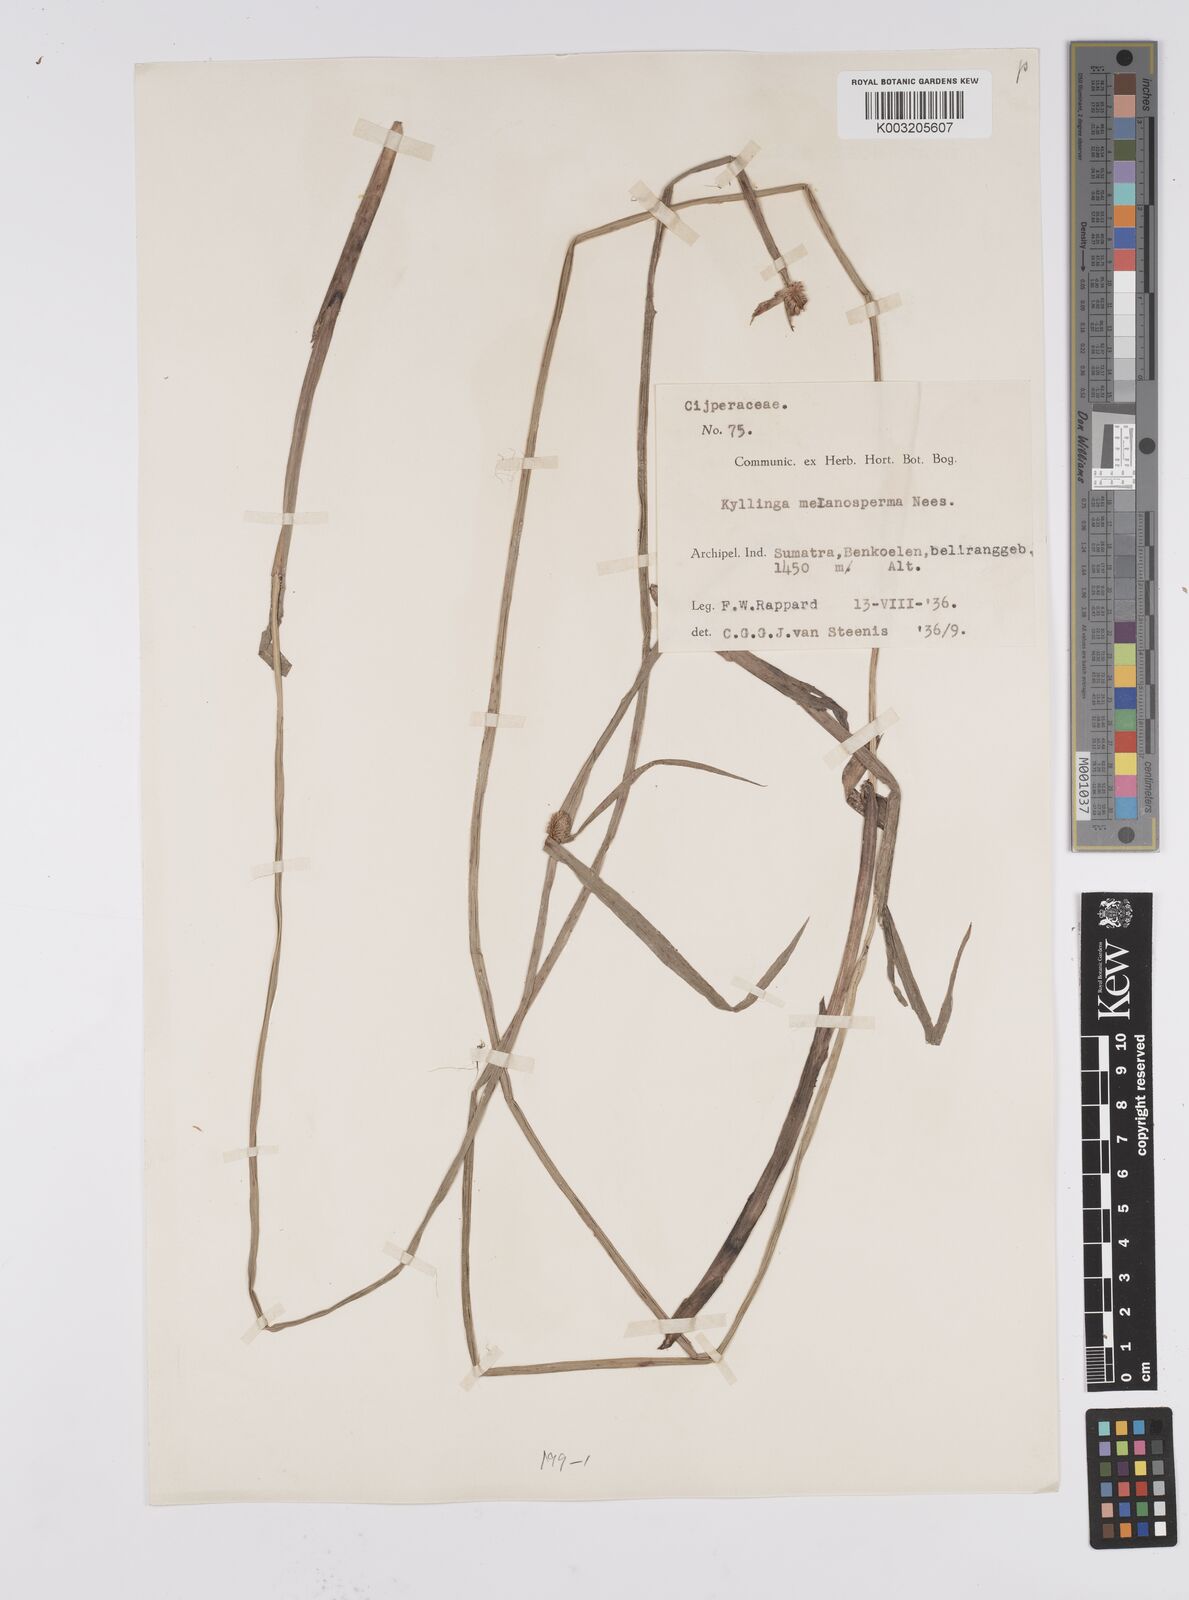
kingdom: Plantae
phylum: Tracheophyta
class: Liliopsida
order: Poales
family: Cyperaceae
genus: Cyperus
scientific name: Cyperus melanospermus
